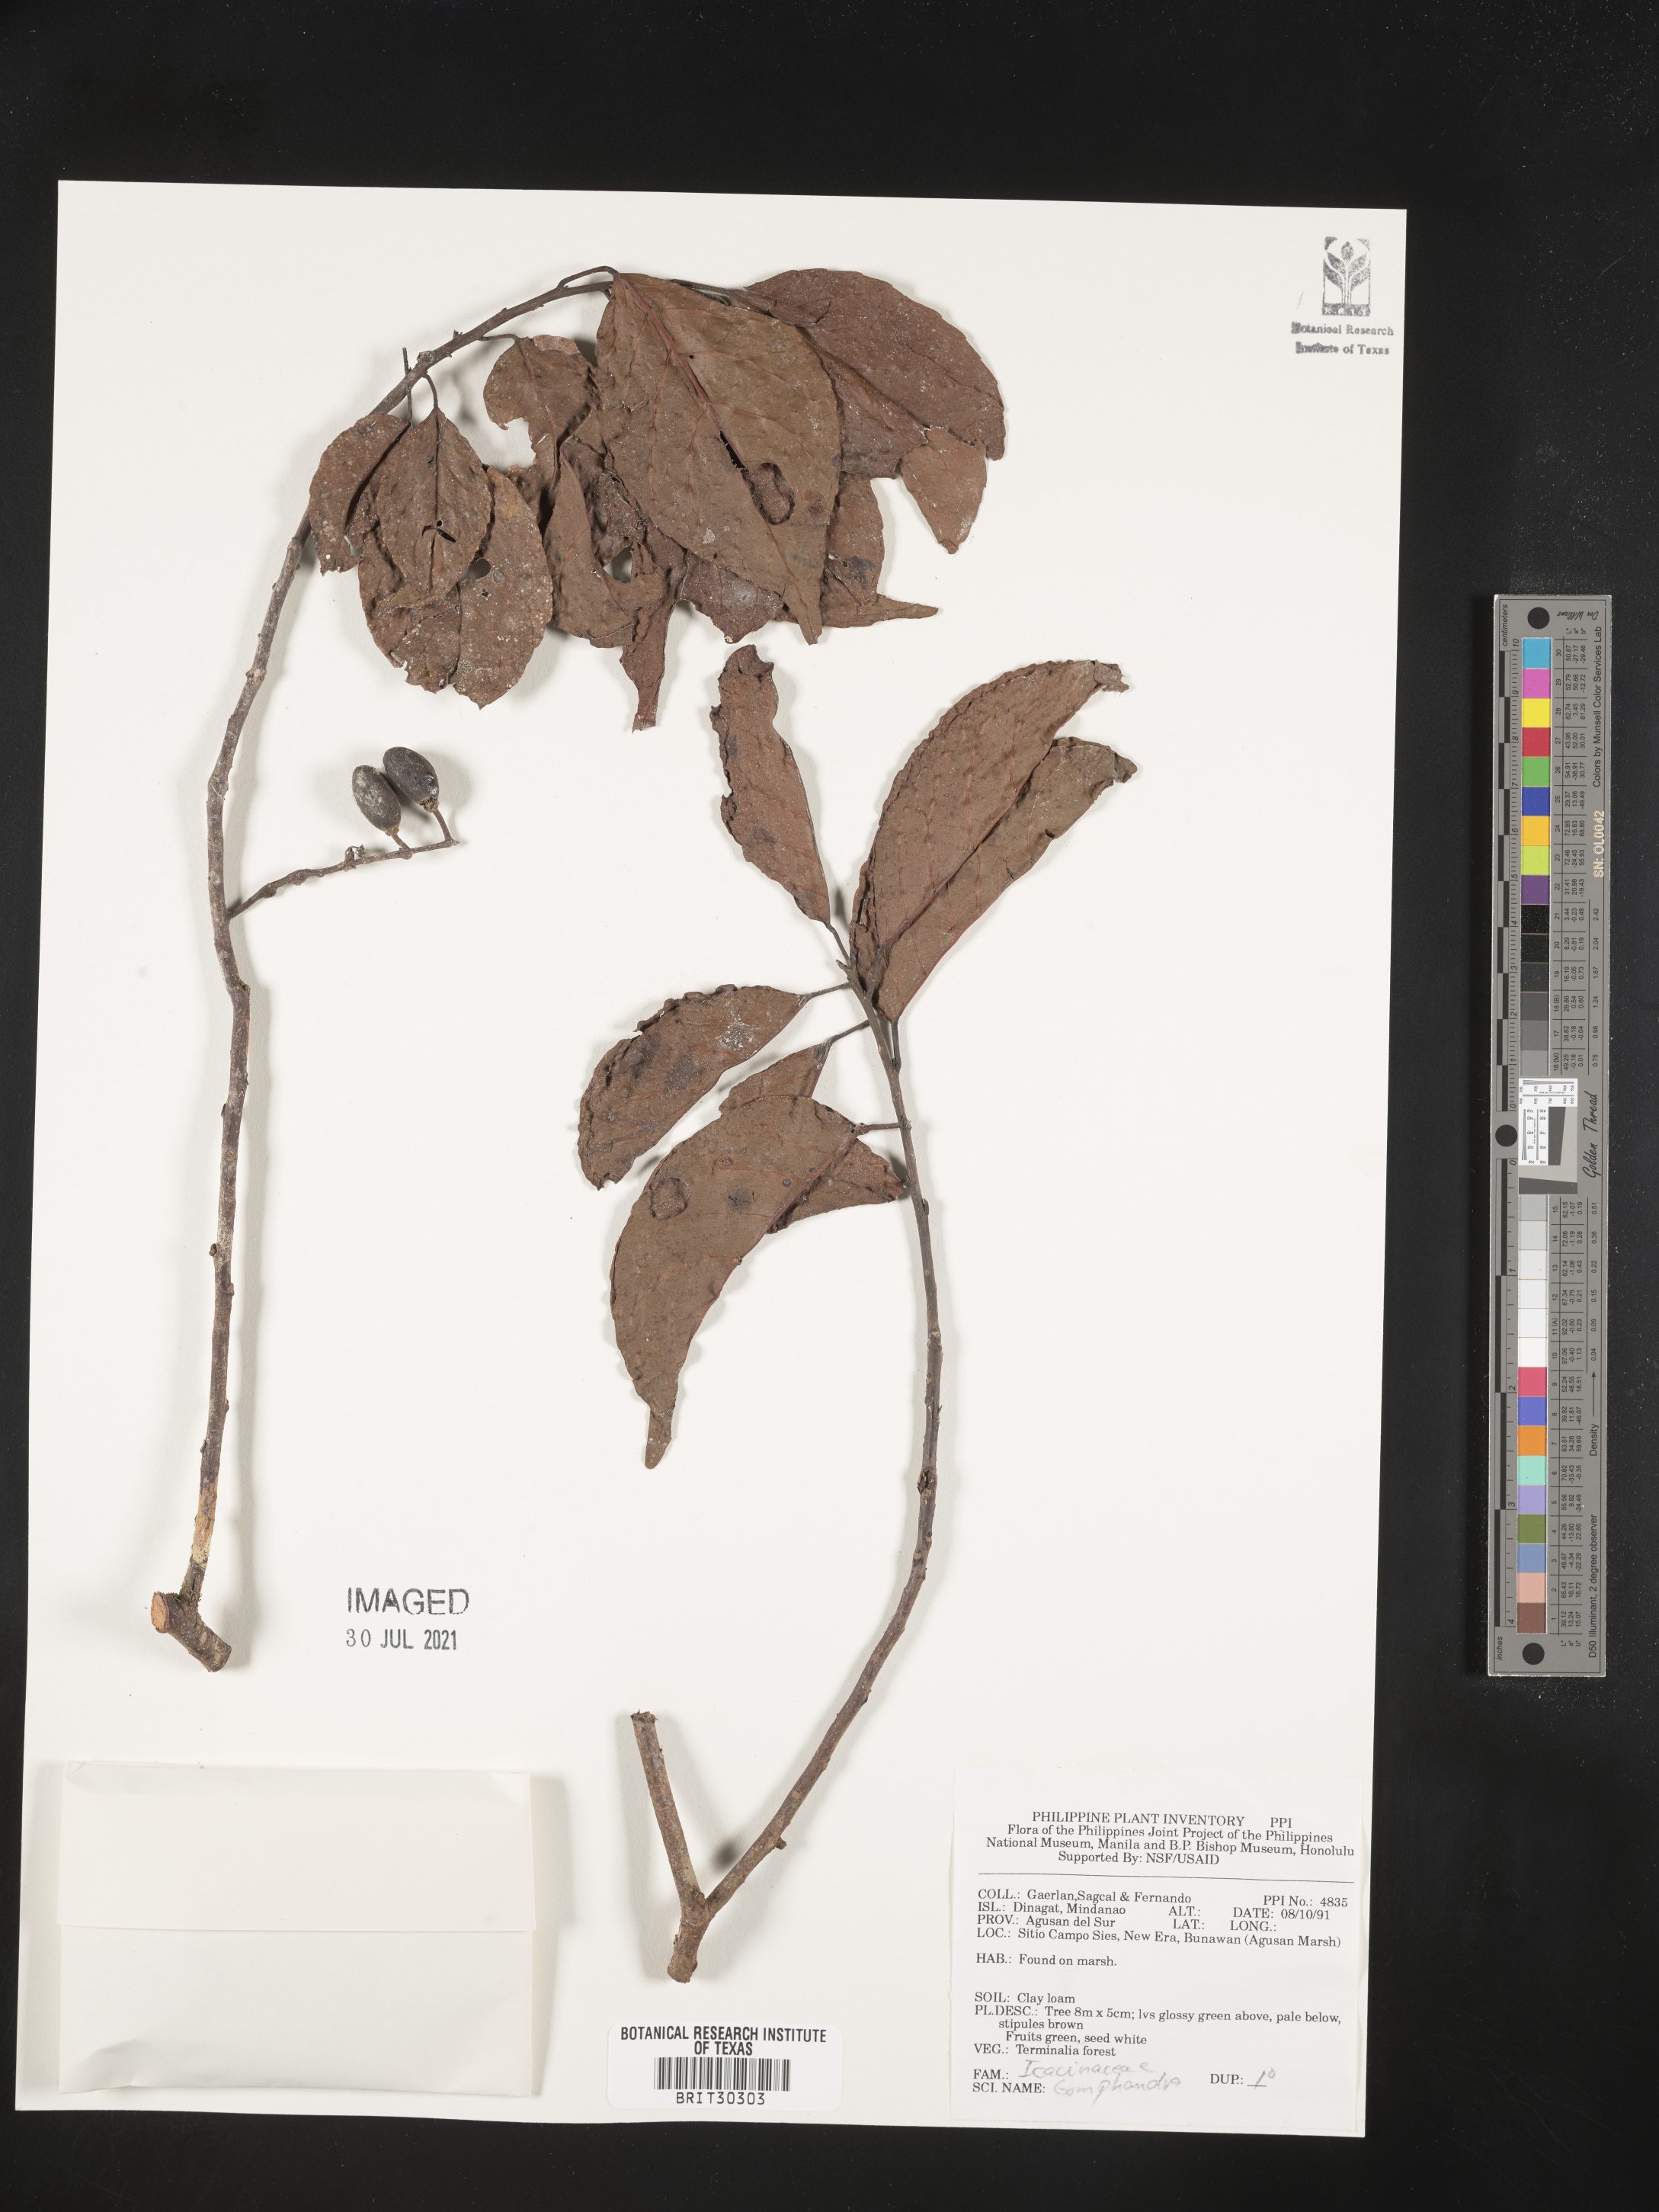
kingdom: Plantae
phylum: Tracheophyta
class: Magnoliopsida
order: Cardiopteridales
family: Stemonuraceae
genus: Gomphandra
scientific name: Gomphandra
